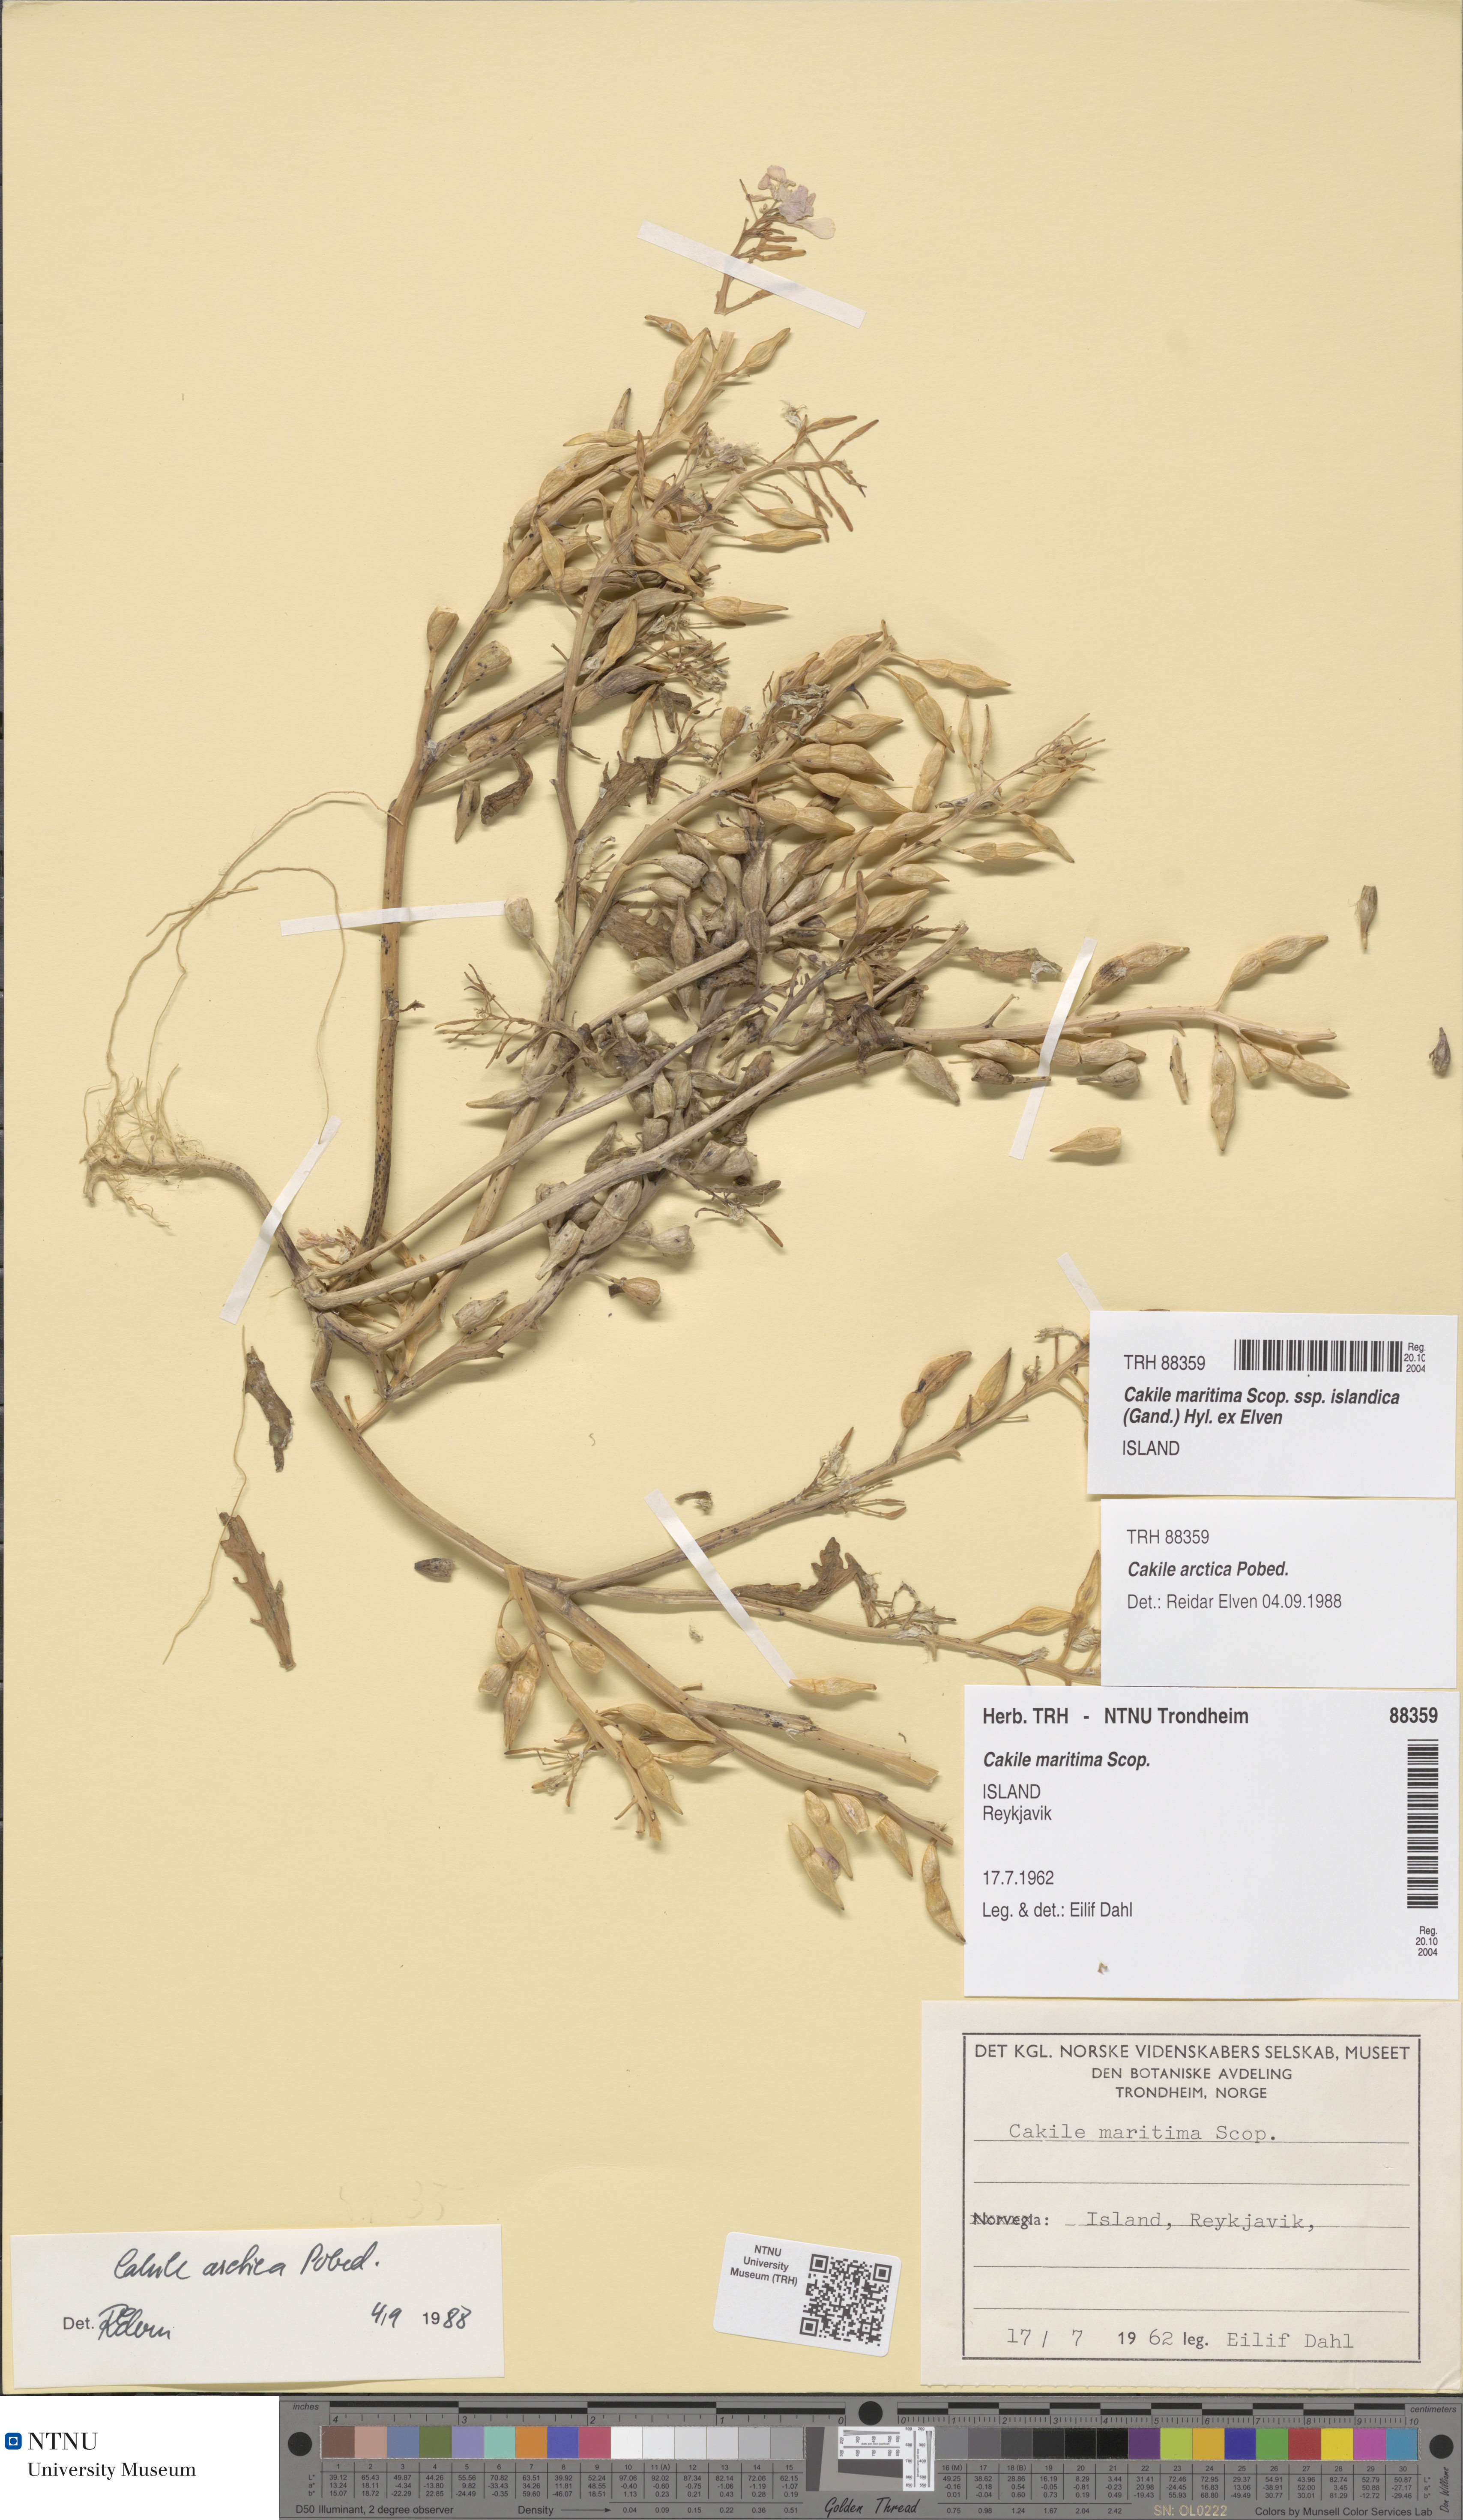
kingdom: Plantae
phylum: Tracheophyta
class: Magnoliopsida
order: Brassicales
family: Brassicaceae
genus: Cakile
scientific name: Cakile arctica
